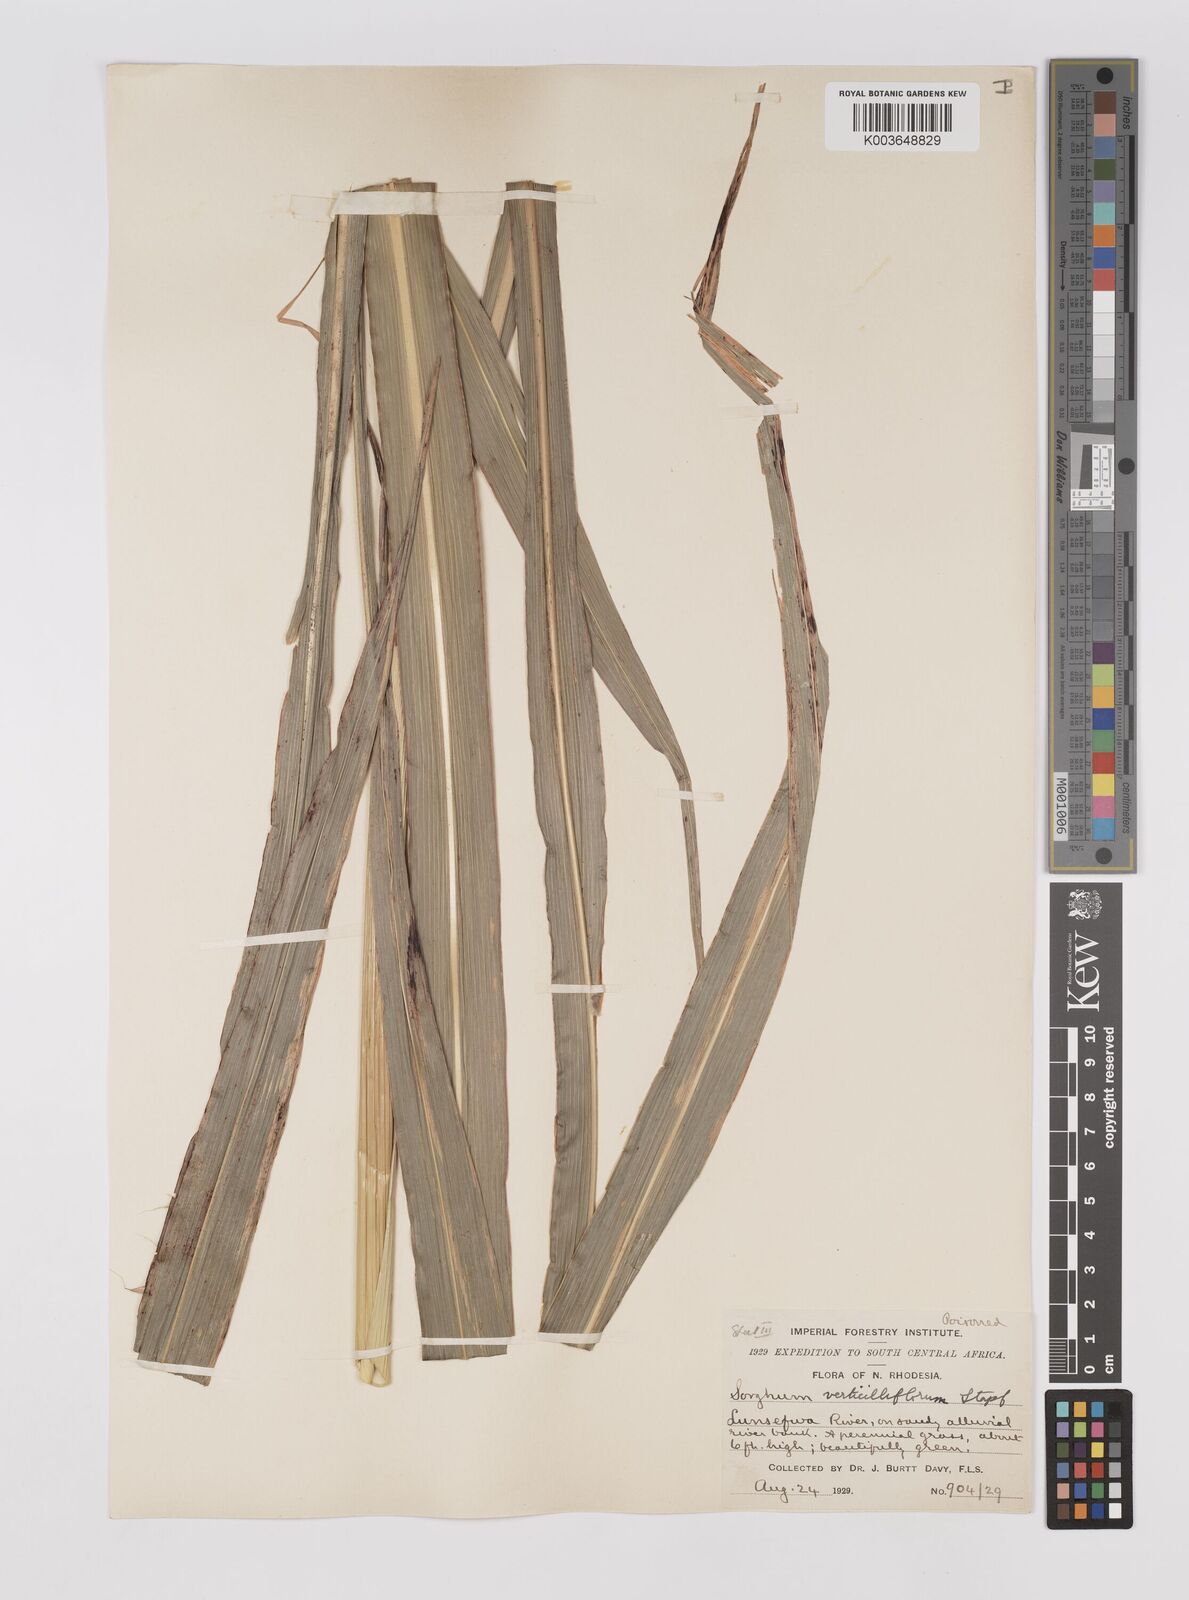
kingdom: Plantae
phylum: Tracheophyta
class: Liliopsida
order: Poales
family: Poaceae
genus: Sorghum
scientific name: Sorghum arundinaceum
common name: Sorghum
